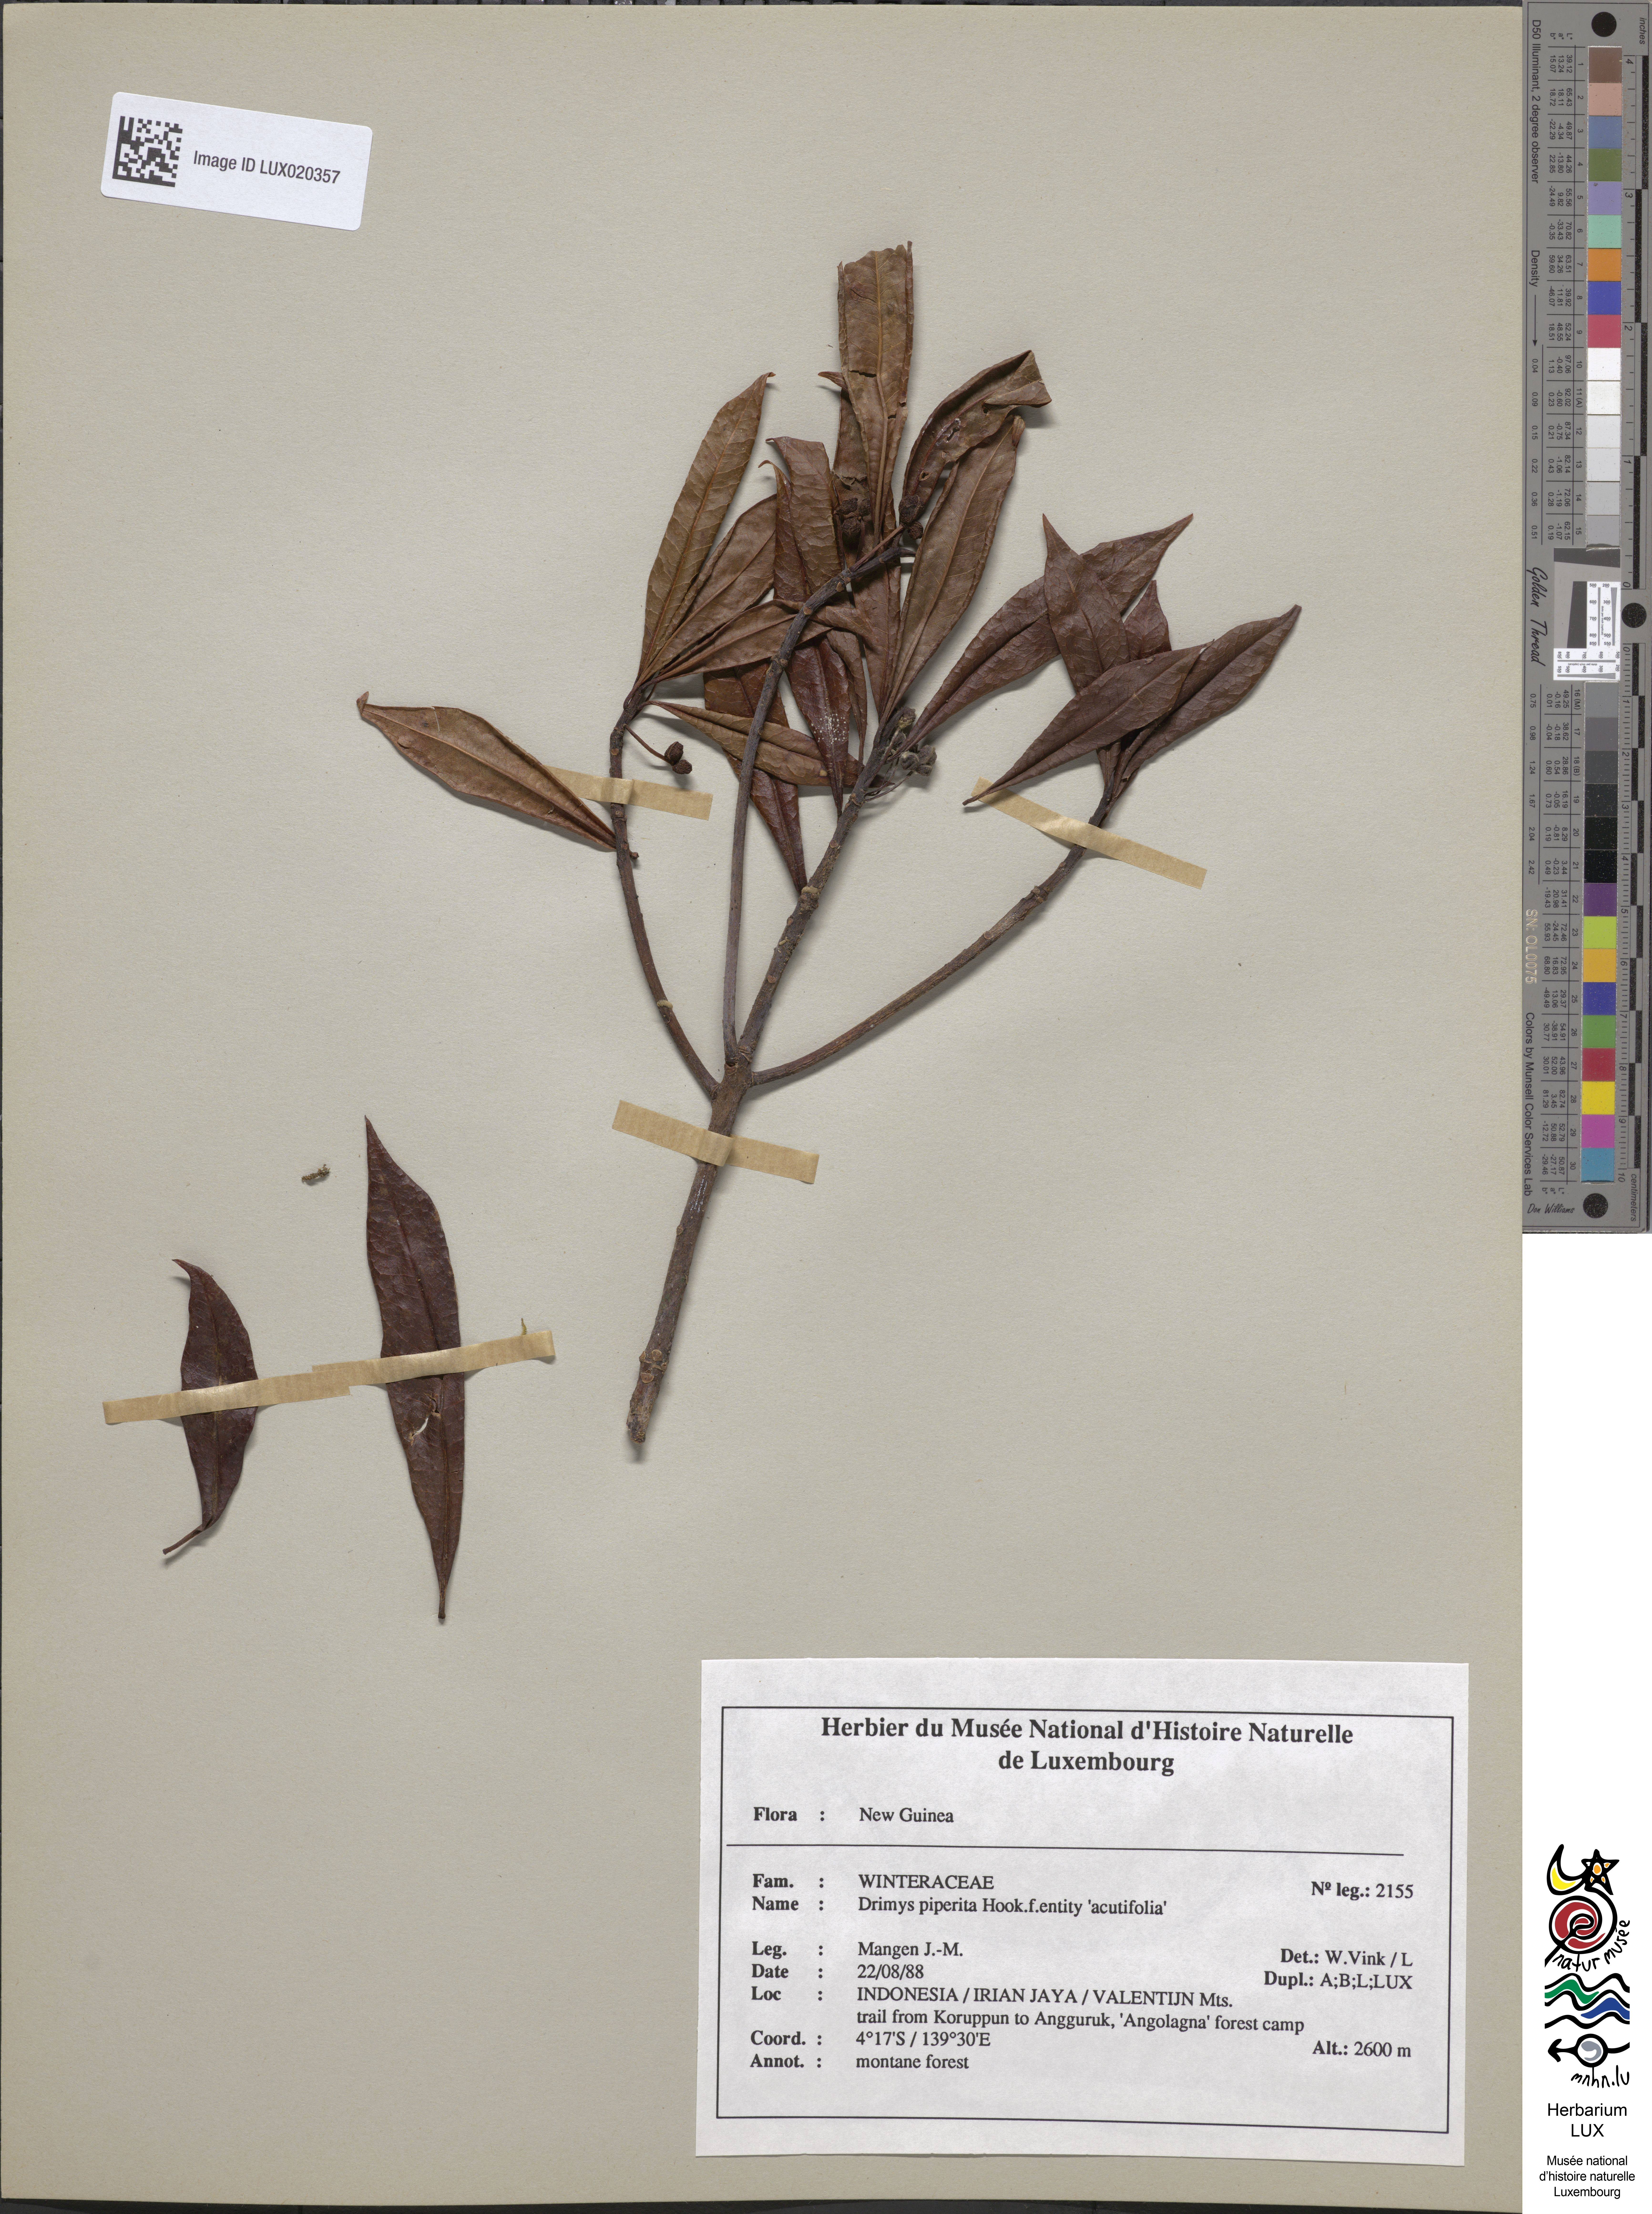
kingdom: Plantae
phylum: Tracheophyta
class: Magnoliopsida
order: Canellales
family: Winteraceae
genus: Drimys
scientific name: Drimys piperita
